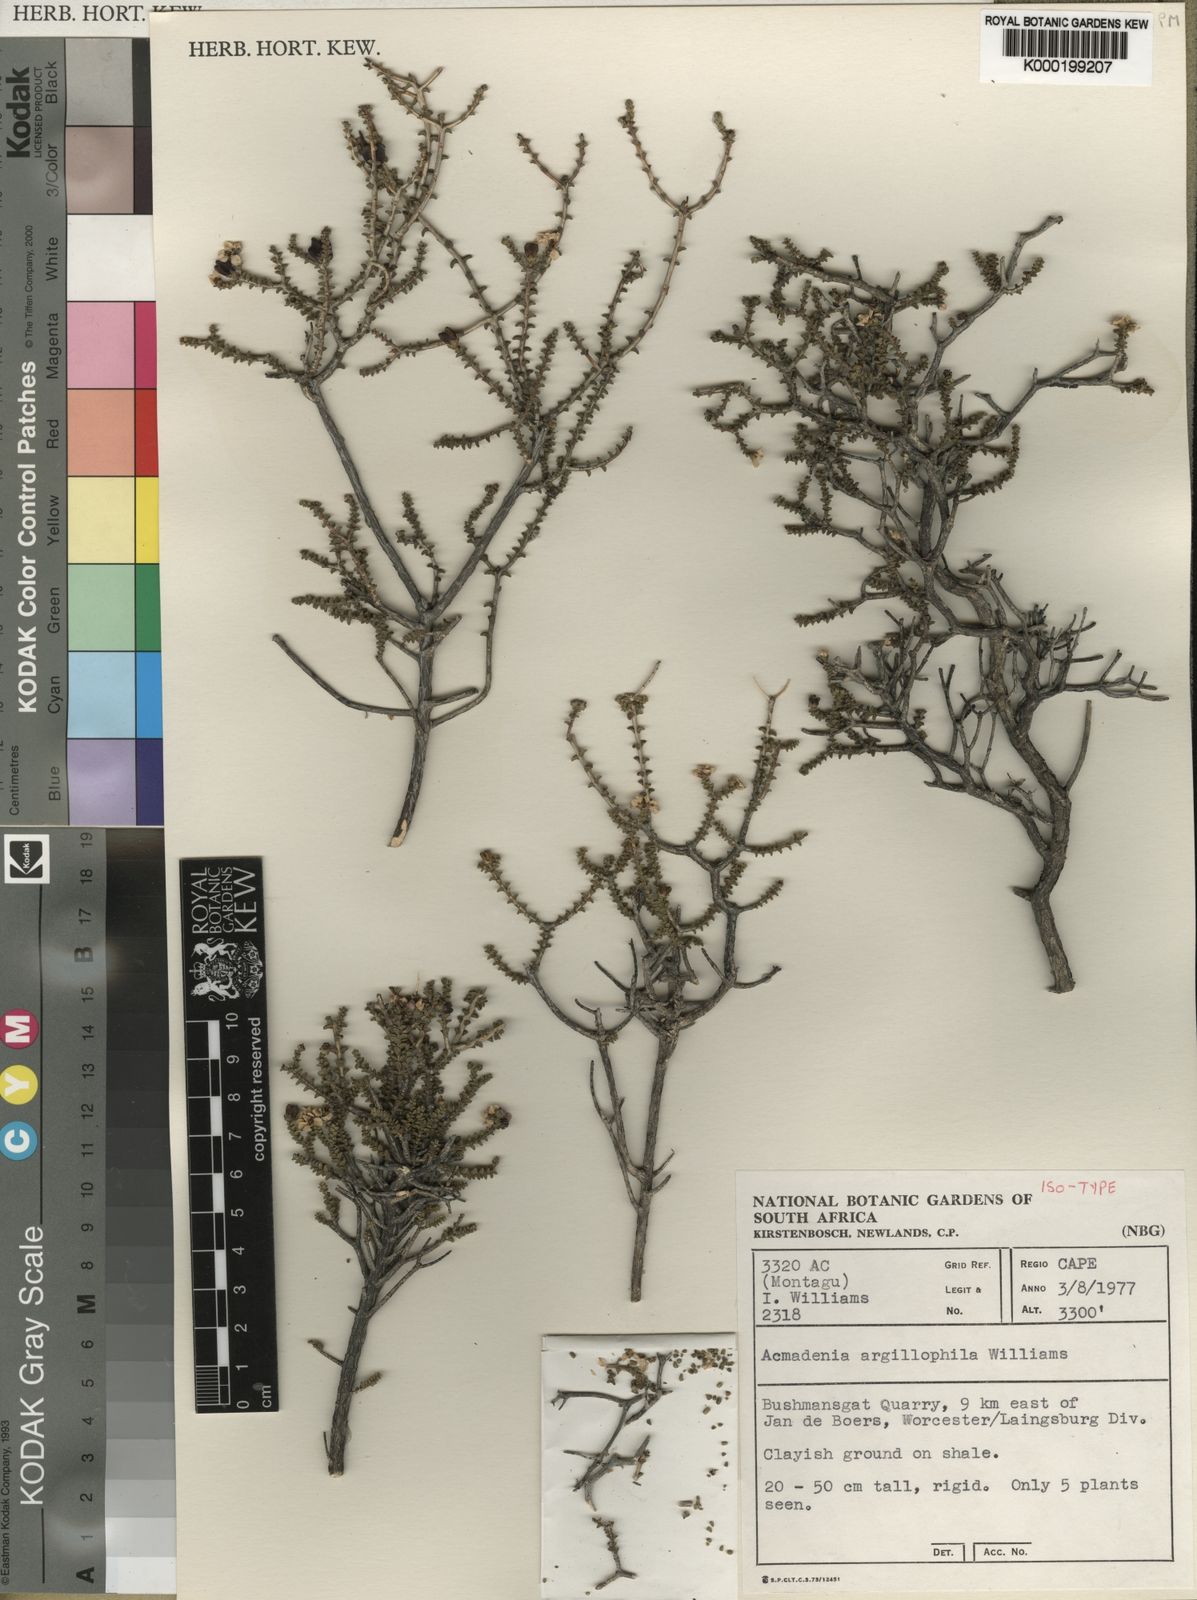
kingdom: Plantae
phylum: Tracheophyta
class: Magnoliopsida
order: Sapindales
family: Rutaceae
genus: Acmadenia
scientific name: Acmadenia argillophila
